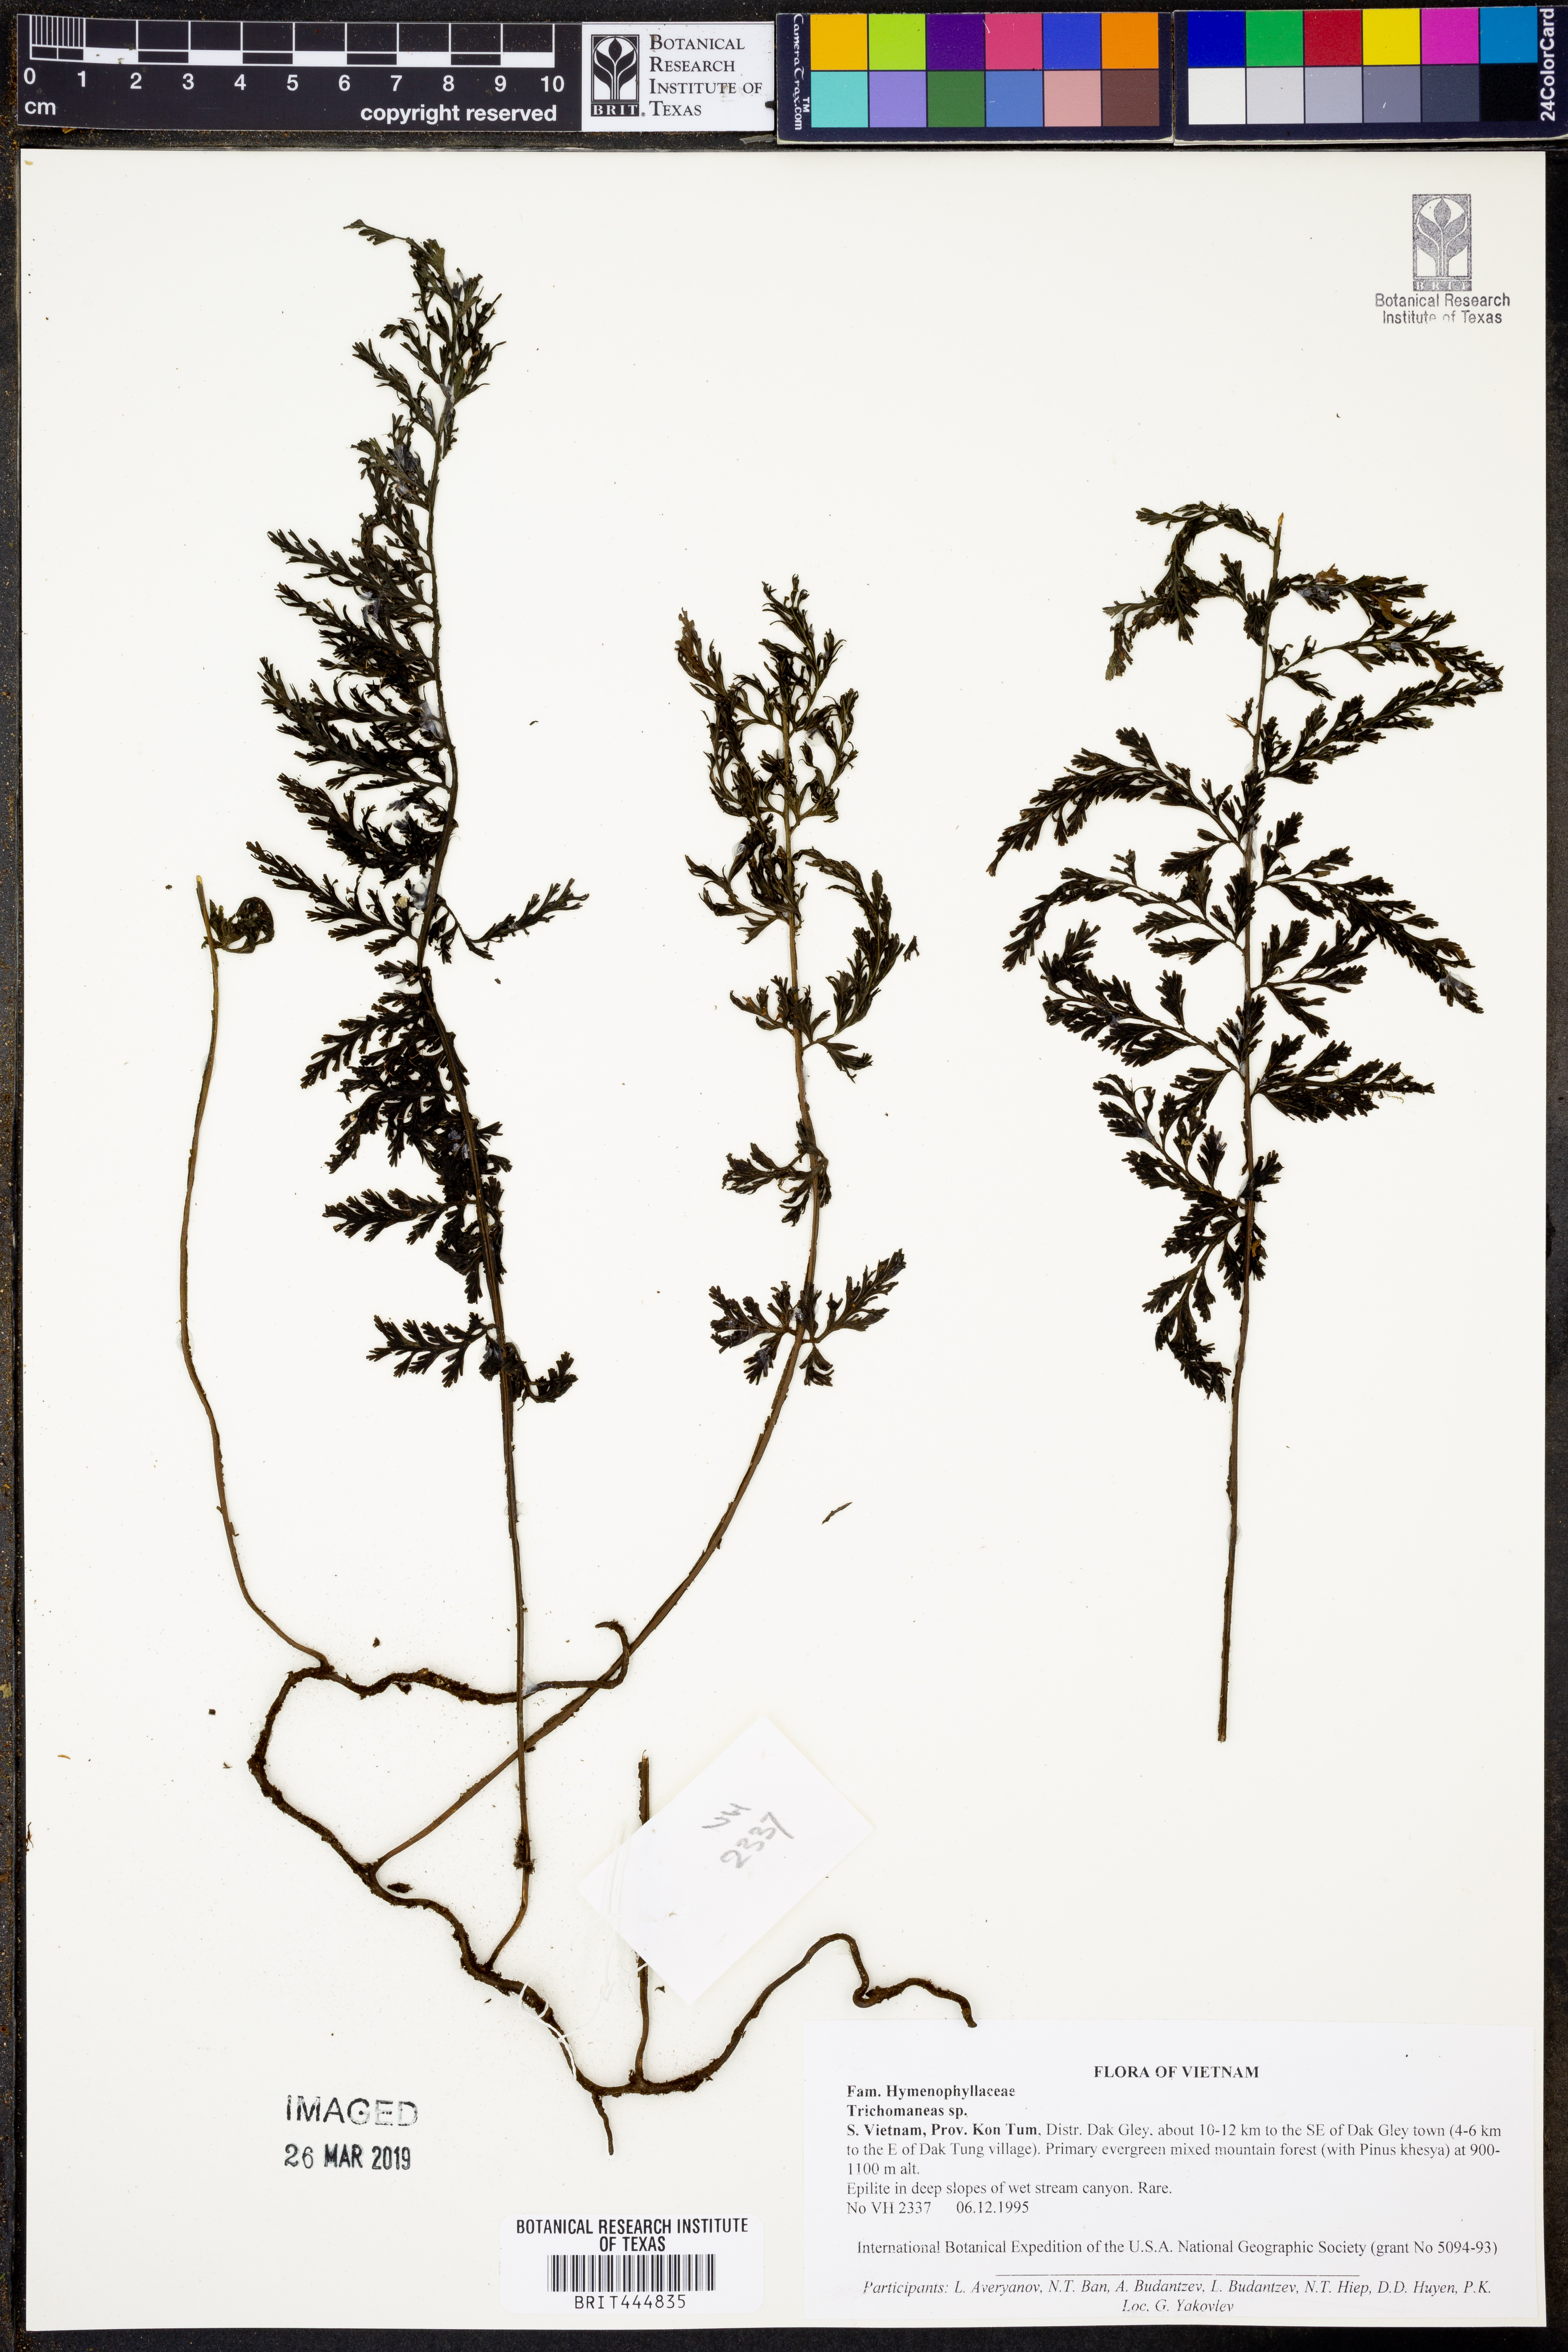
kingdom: Plantae
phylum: Tracheophyta
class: Polypodiopsida
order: Hymenophyllales
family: Hymenophyllaceae
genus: Trichomanes
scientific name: Trichomanes
